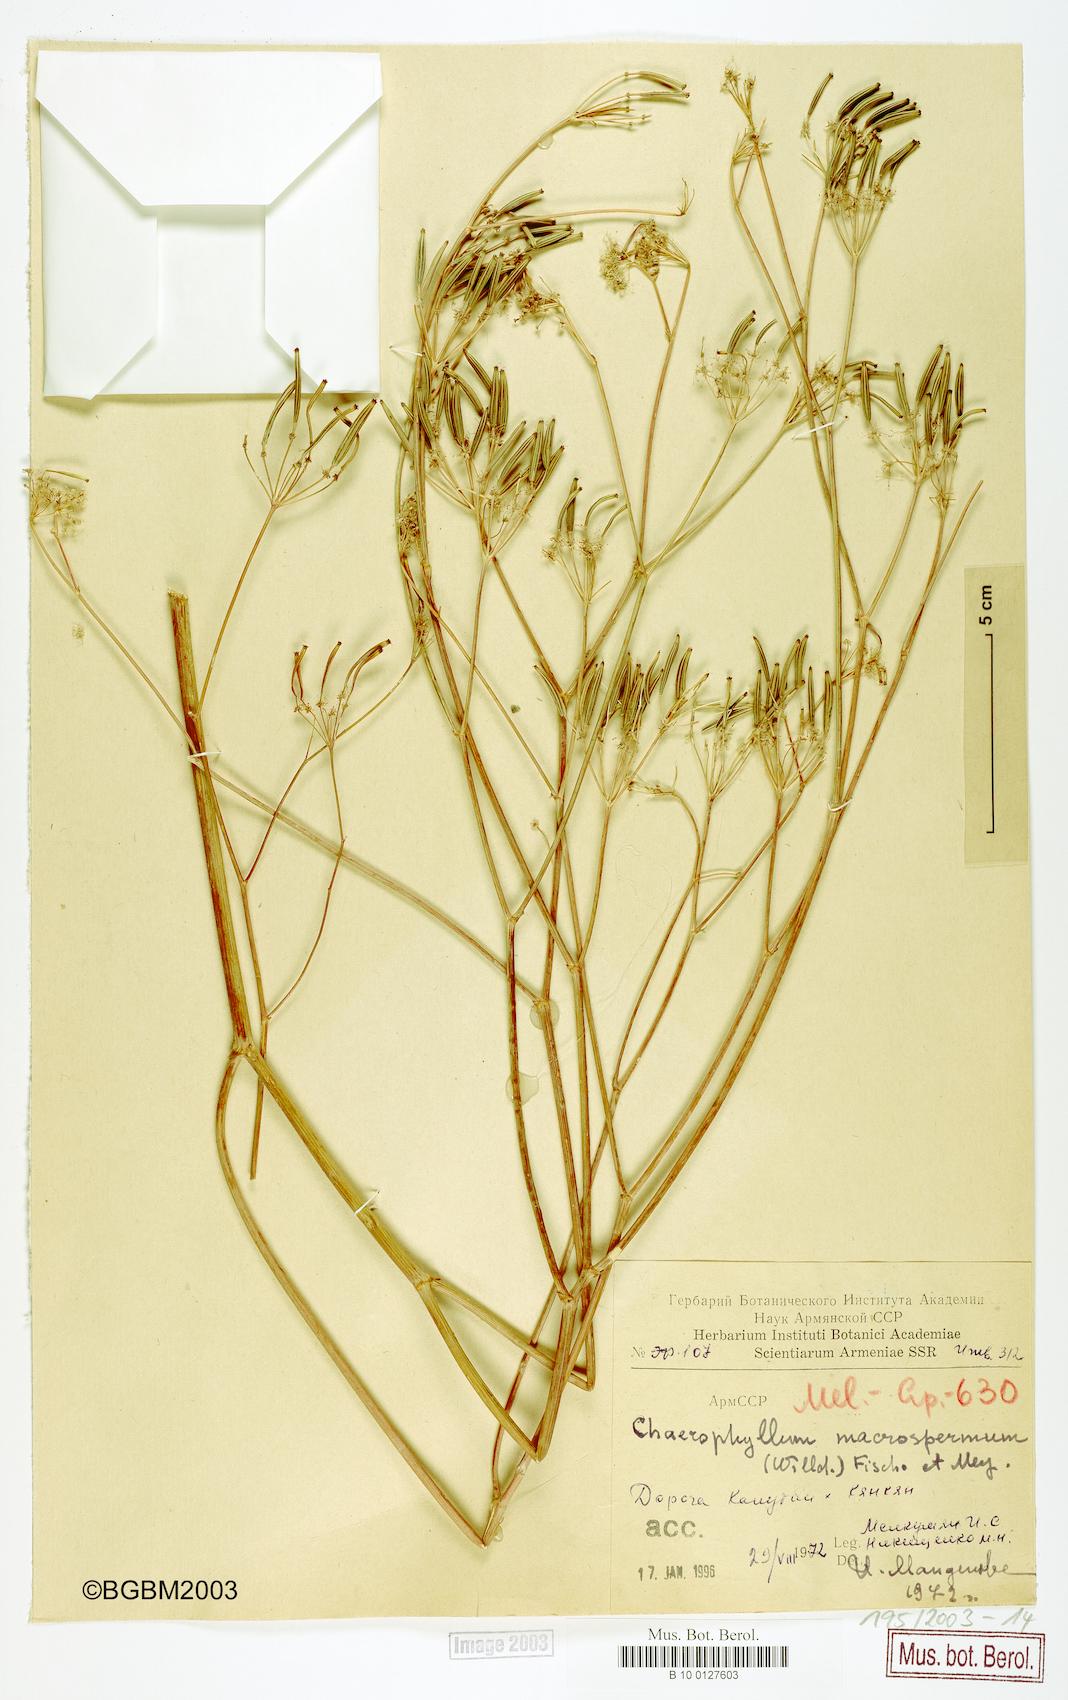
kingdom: Plantae
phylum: Tracheophyta
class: Magnoliopsida
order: Apiales
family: Apiaceae
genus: Chaerophyllum
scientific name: Chaerophyllum macrospermum
